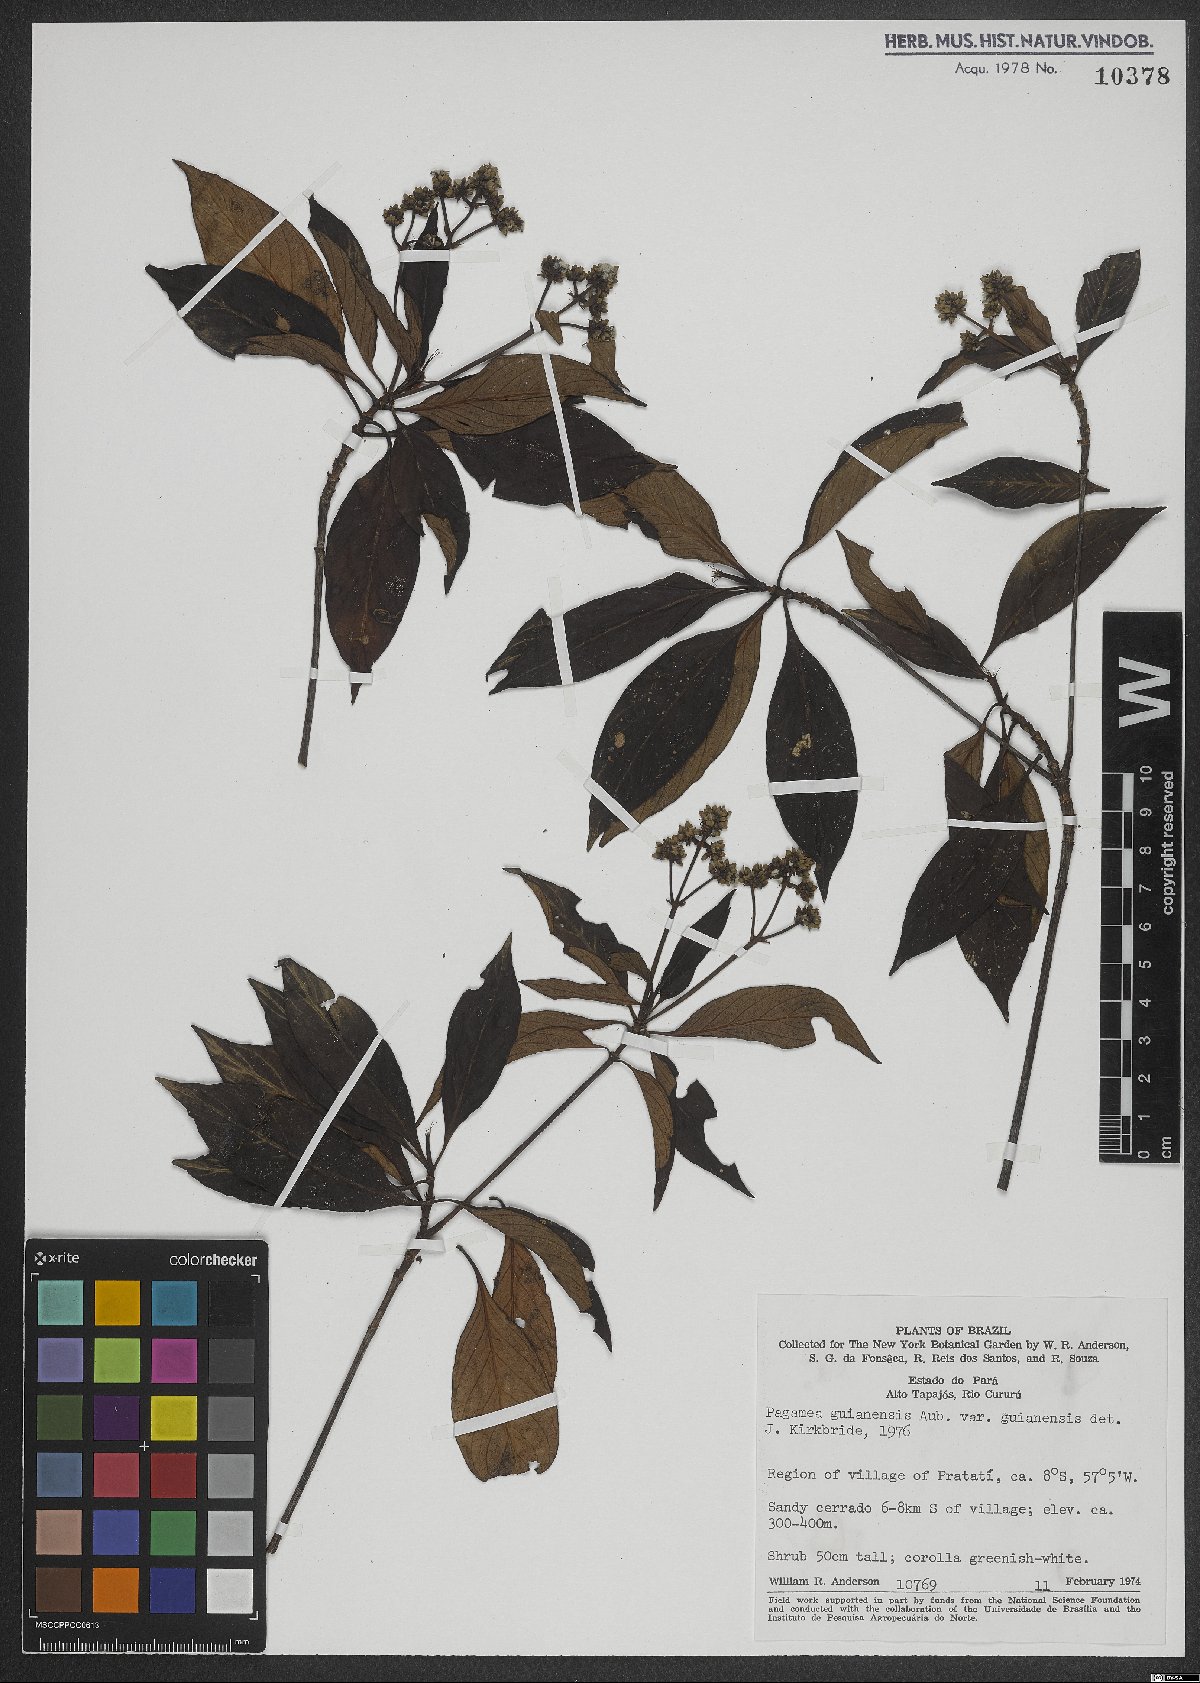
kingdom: Plantae
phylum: Tracheophyta
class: Magnoliopsida
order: Gentianales
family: Rubiaceae
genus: Pagamea
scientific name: Pagamea guianensis
